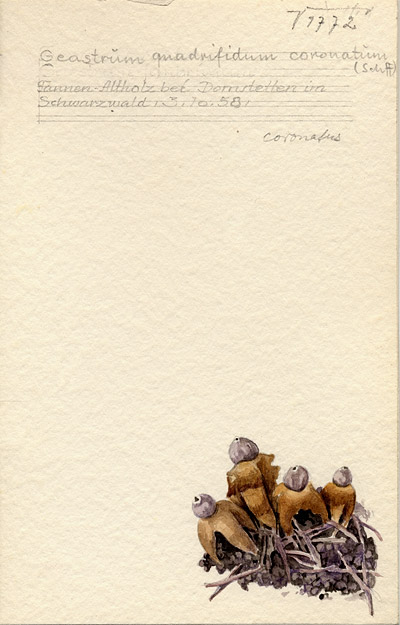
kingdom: Fungi
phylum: Basidiomycota
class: Agaricomycetes
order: Geastrales
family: Geastraceae
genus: Geastrum
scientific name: Geastrum quadrifidum
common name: Rayed earthstar
